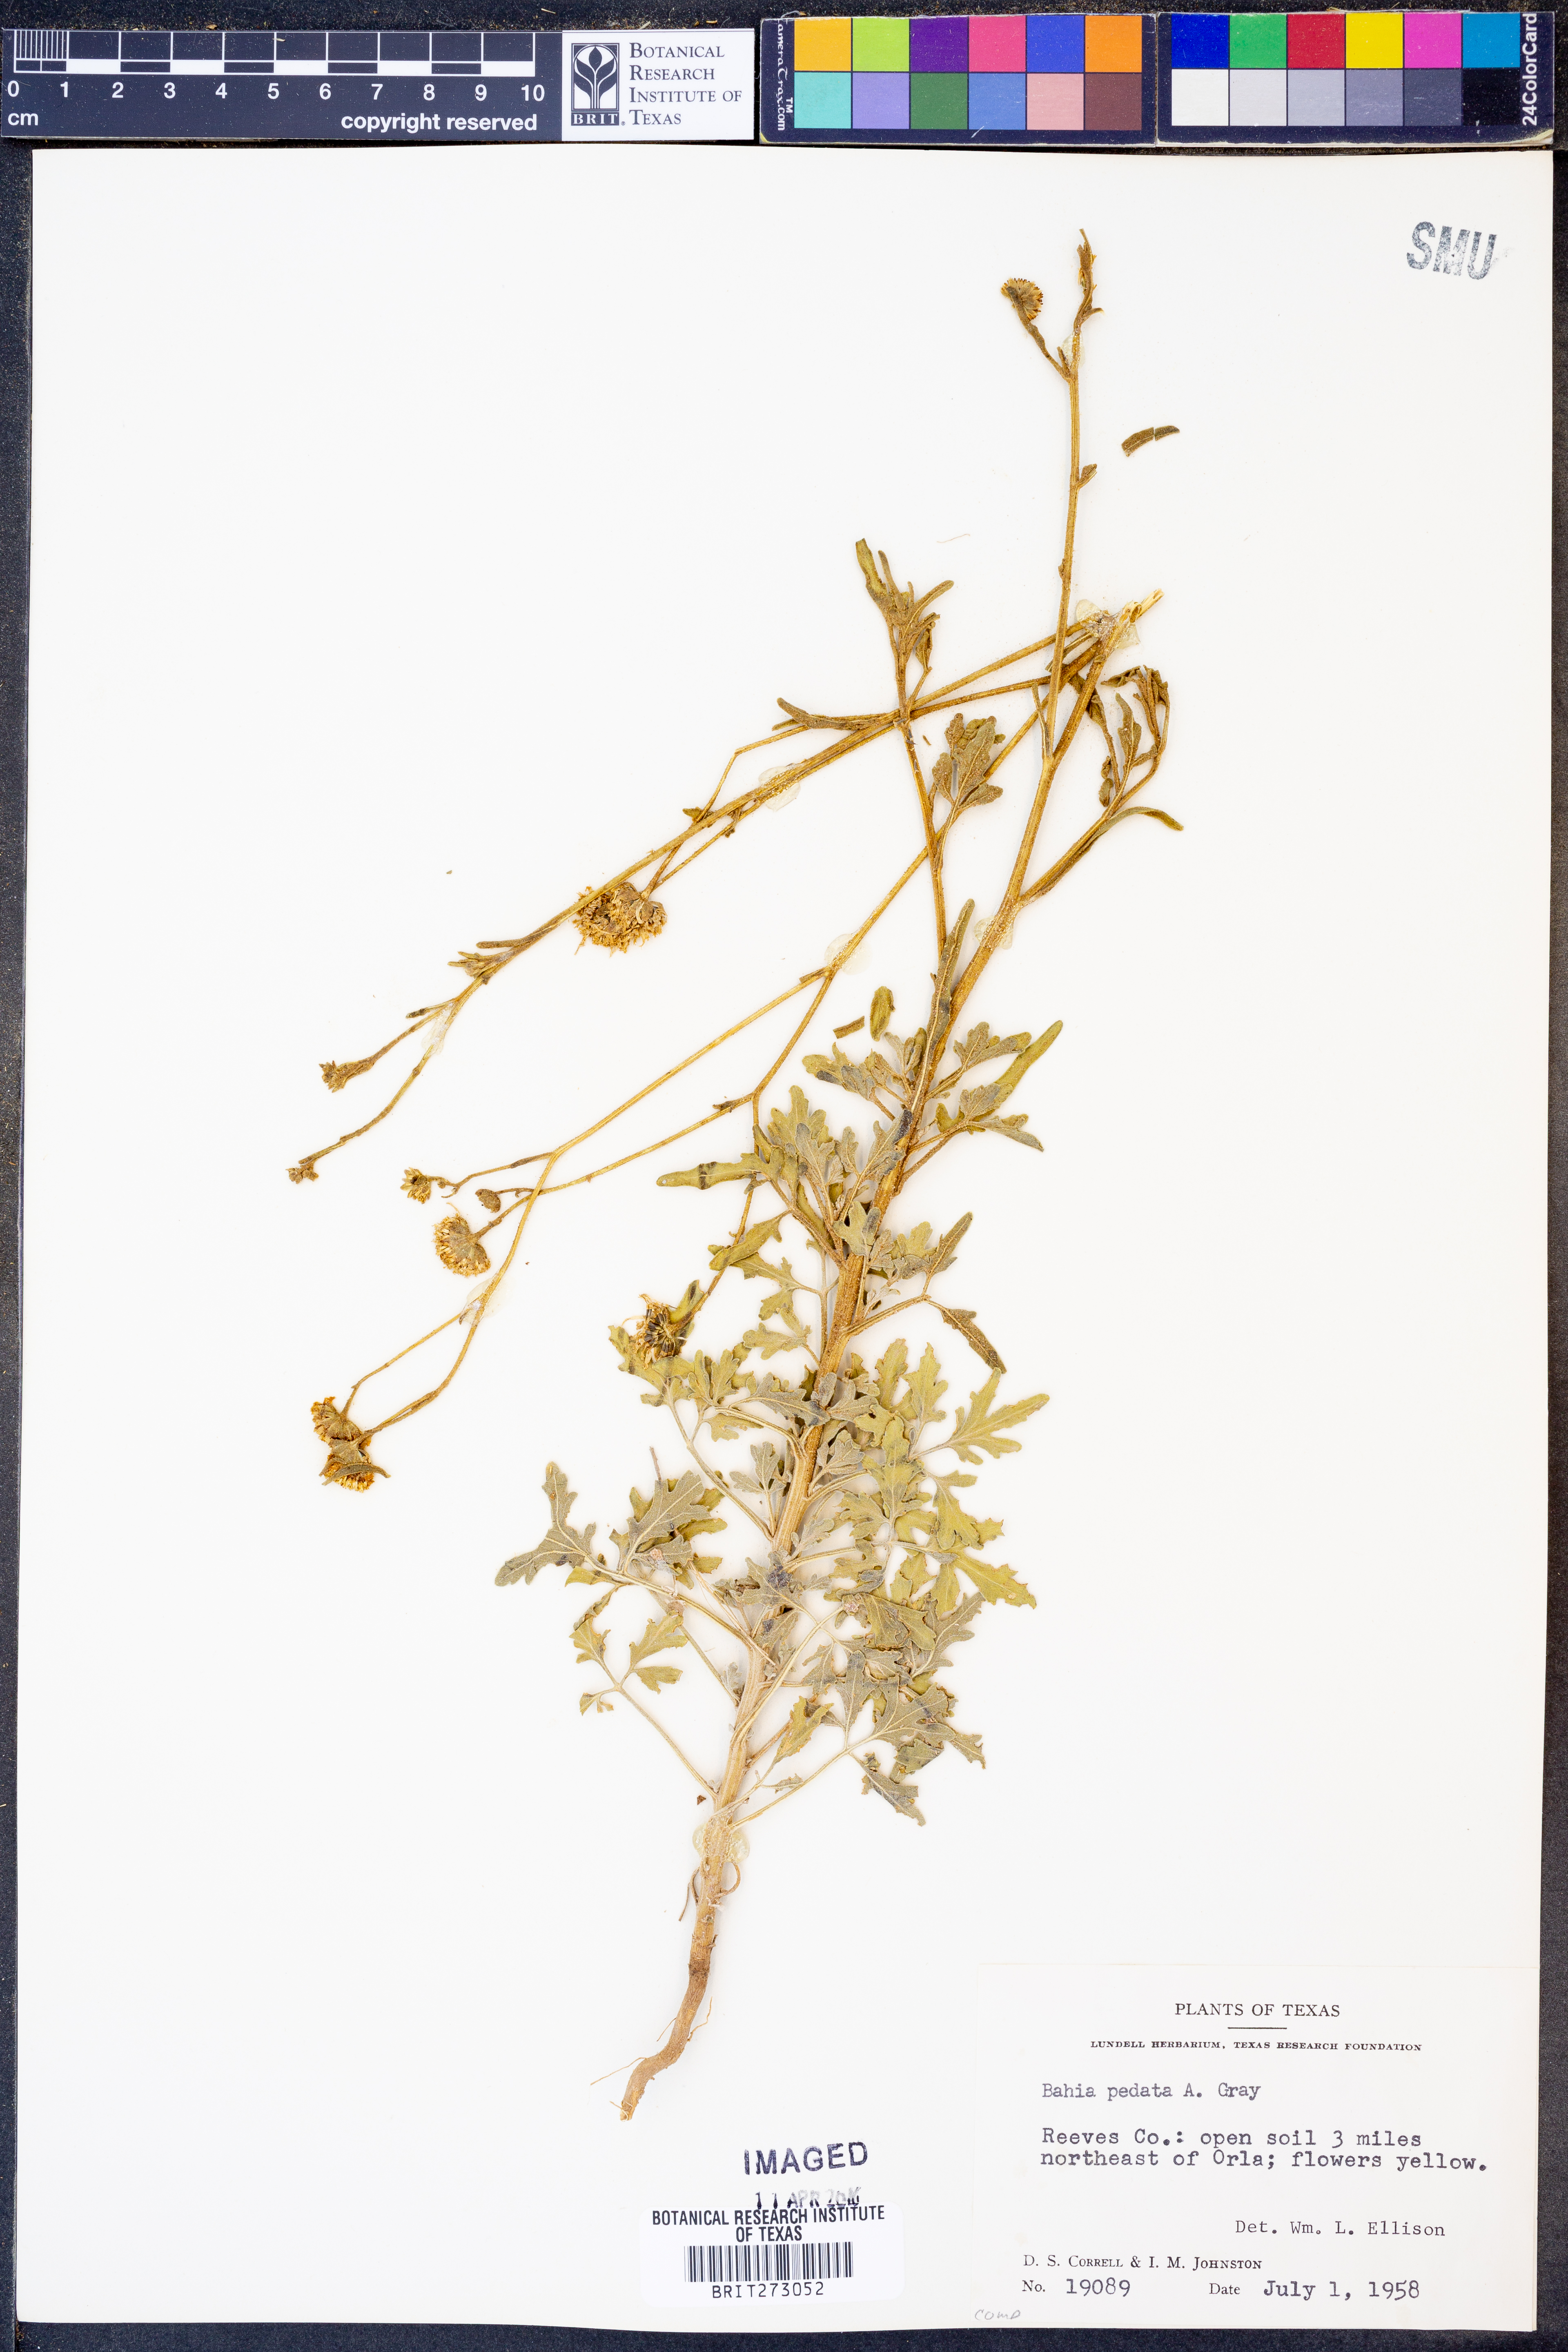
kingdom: Plantae
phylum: Tracheophyta
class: Magnoliopsida
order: Asterales
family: Asteraceae
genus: Hymenothrix
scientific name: Hymenothrix pedata
